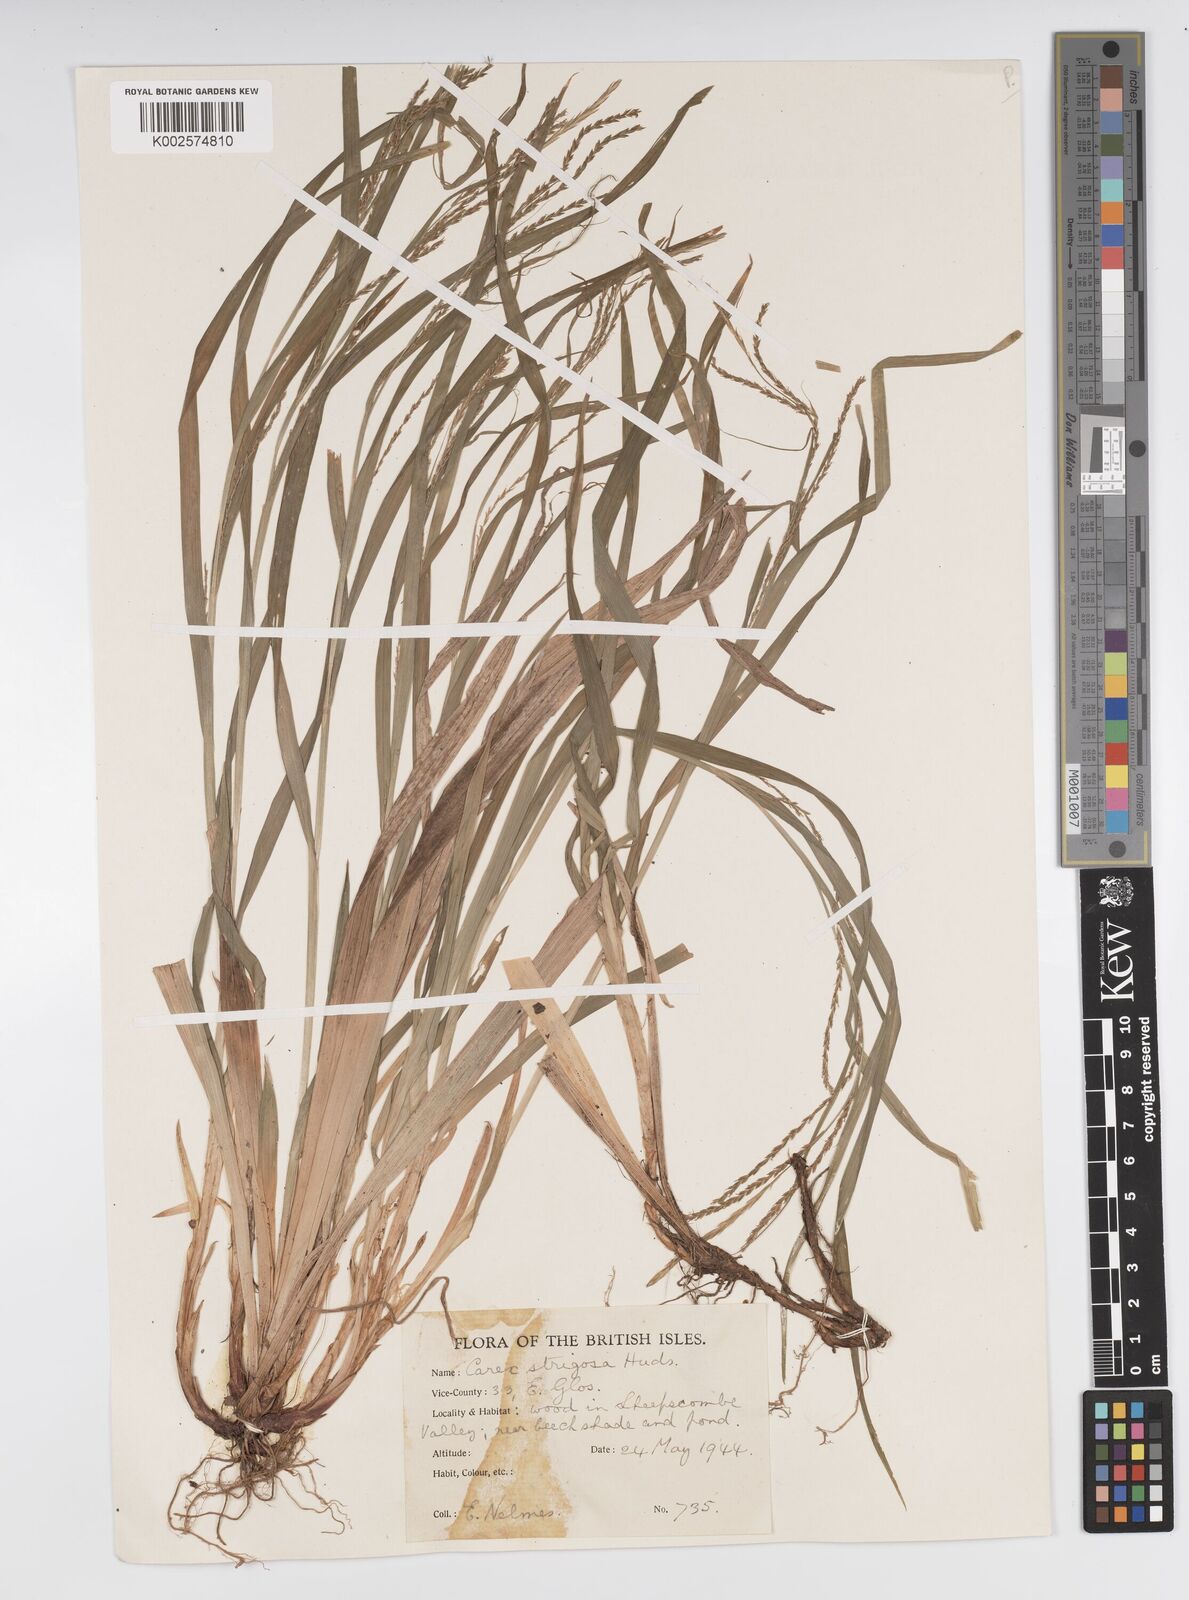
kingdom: Plantae
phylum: Tracheophyta
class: Liliopsida
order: Poales
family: Cyperaceae
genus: Carex
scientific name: Carex strigosa
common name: Thin-spiked wood-sedge
